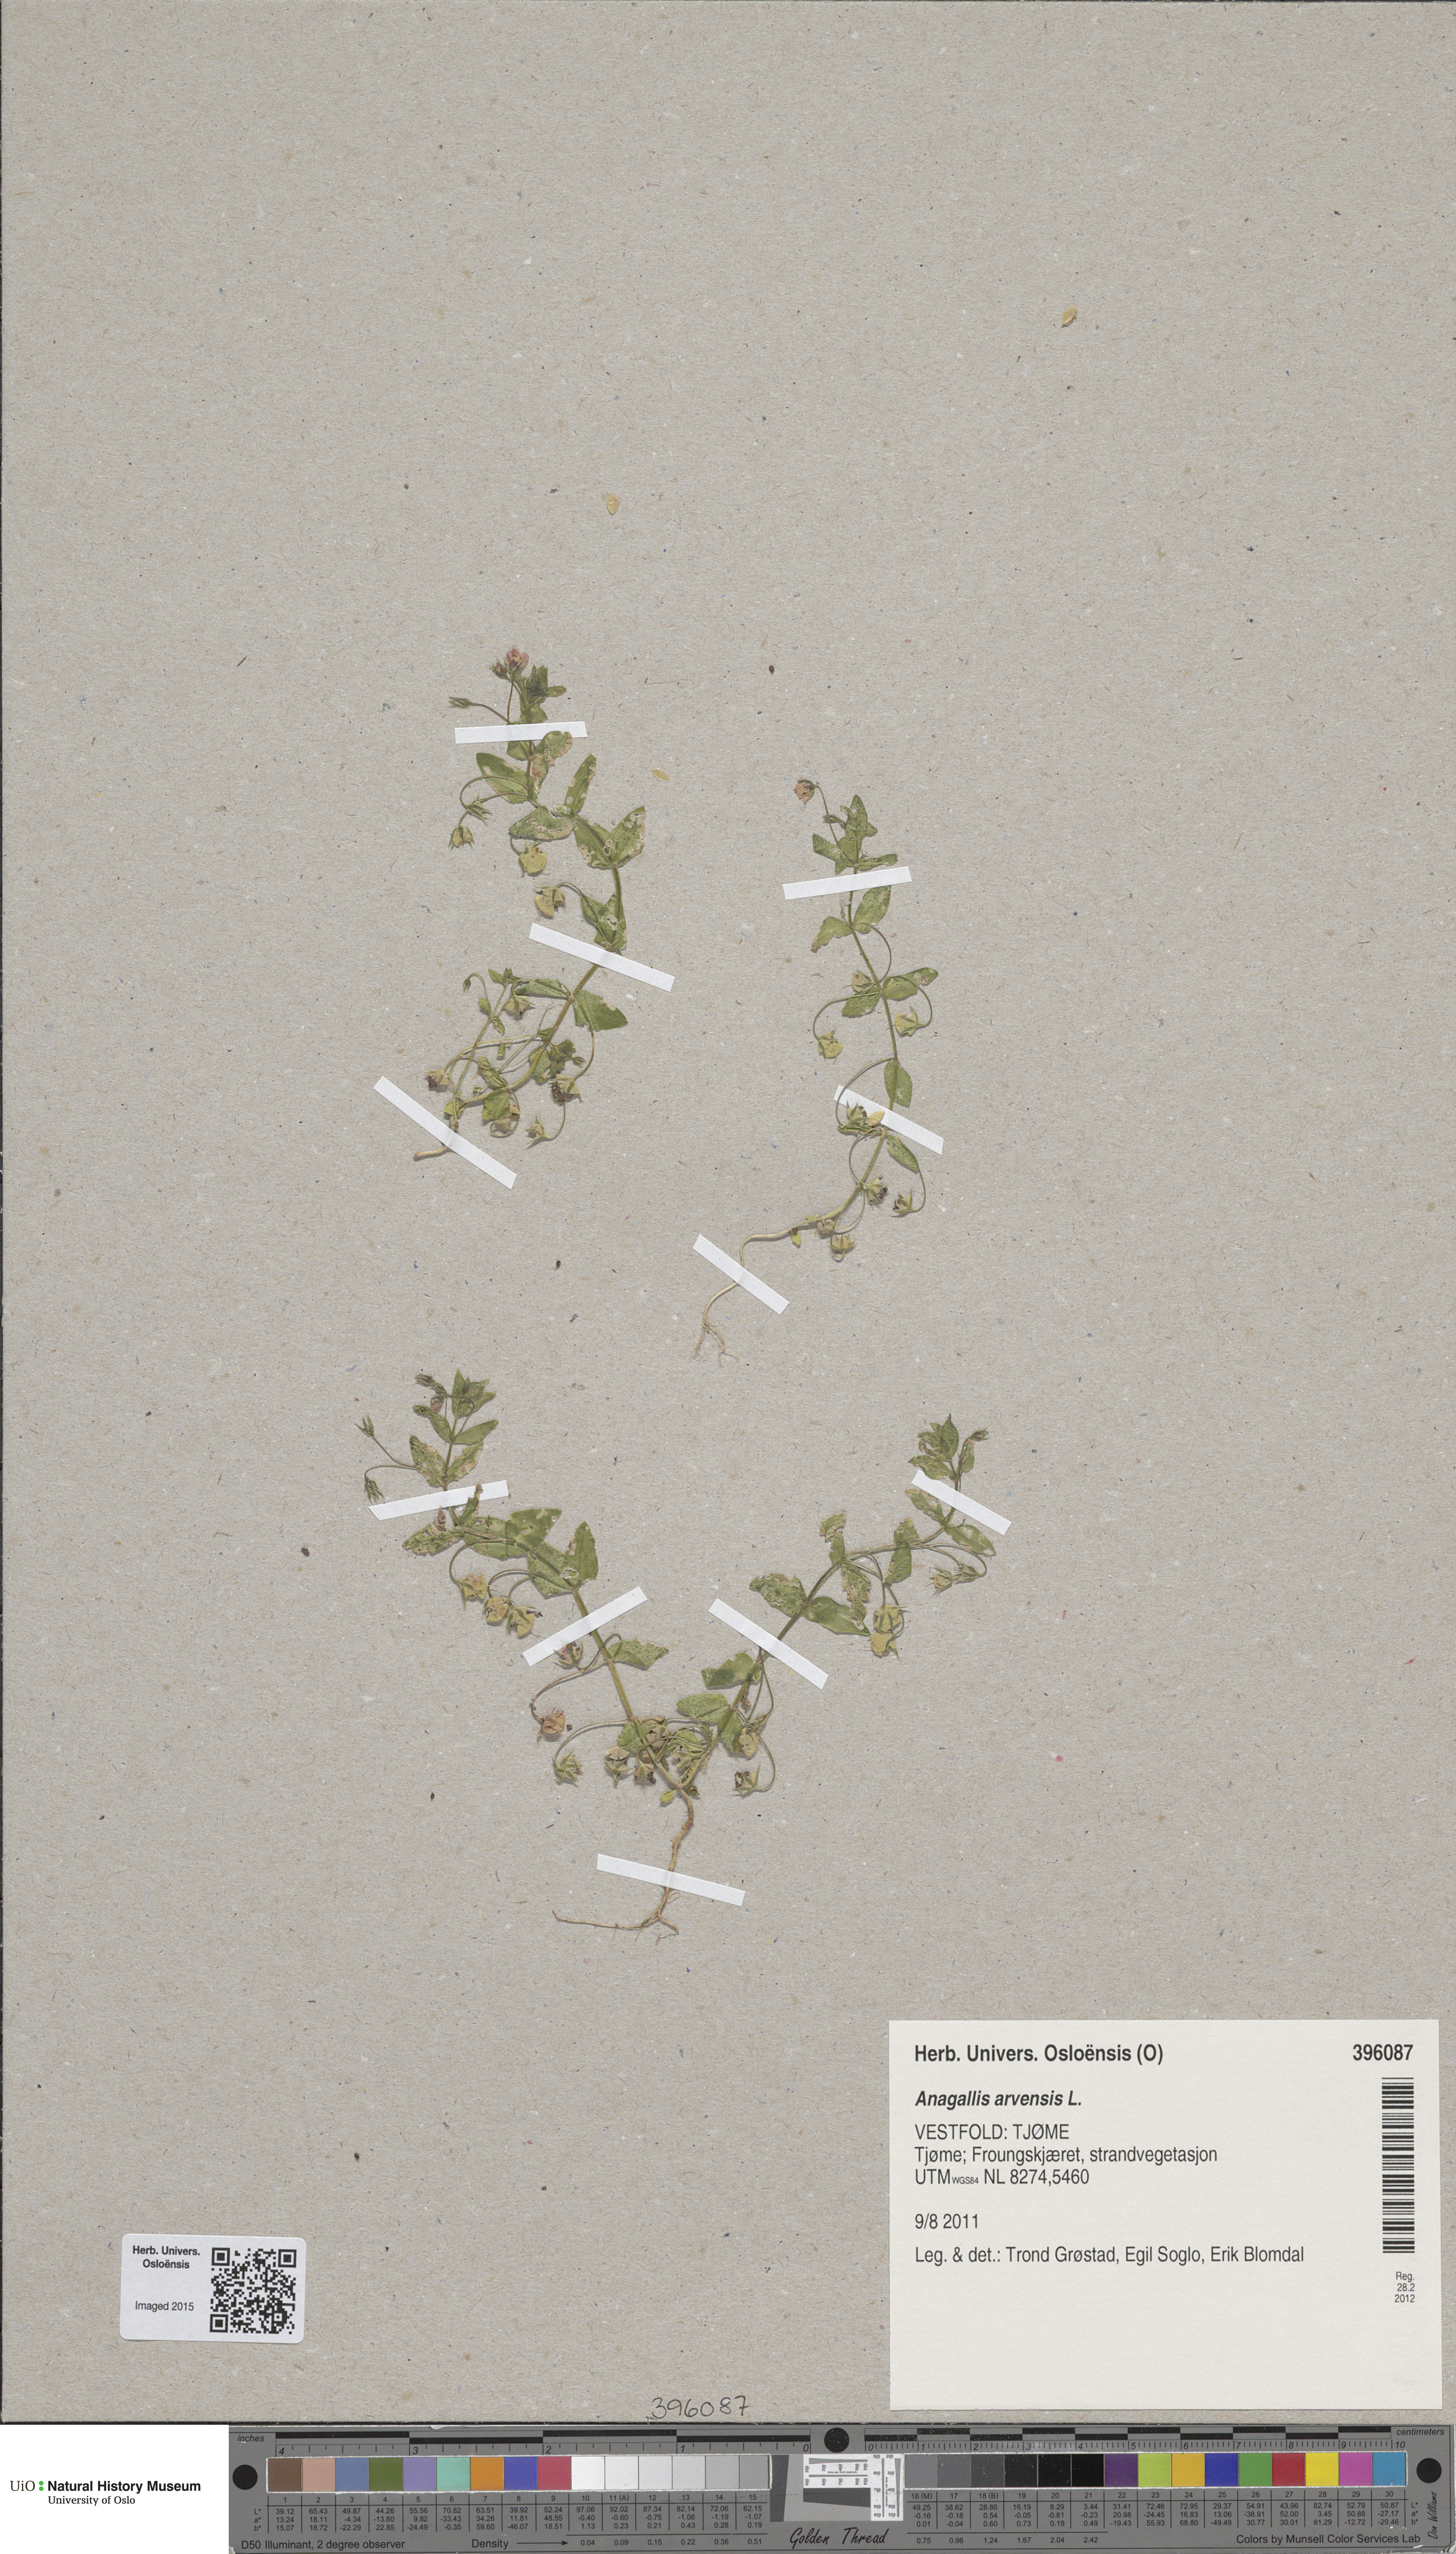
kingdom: Plantae
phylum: Tracheophyta
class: Magnoliopsida
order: Ericales
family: Primulaceae
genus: Lysimachia
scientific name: Lysimachia arvensis
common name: Scarlet pimpernel
